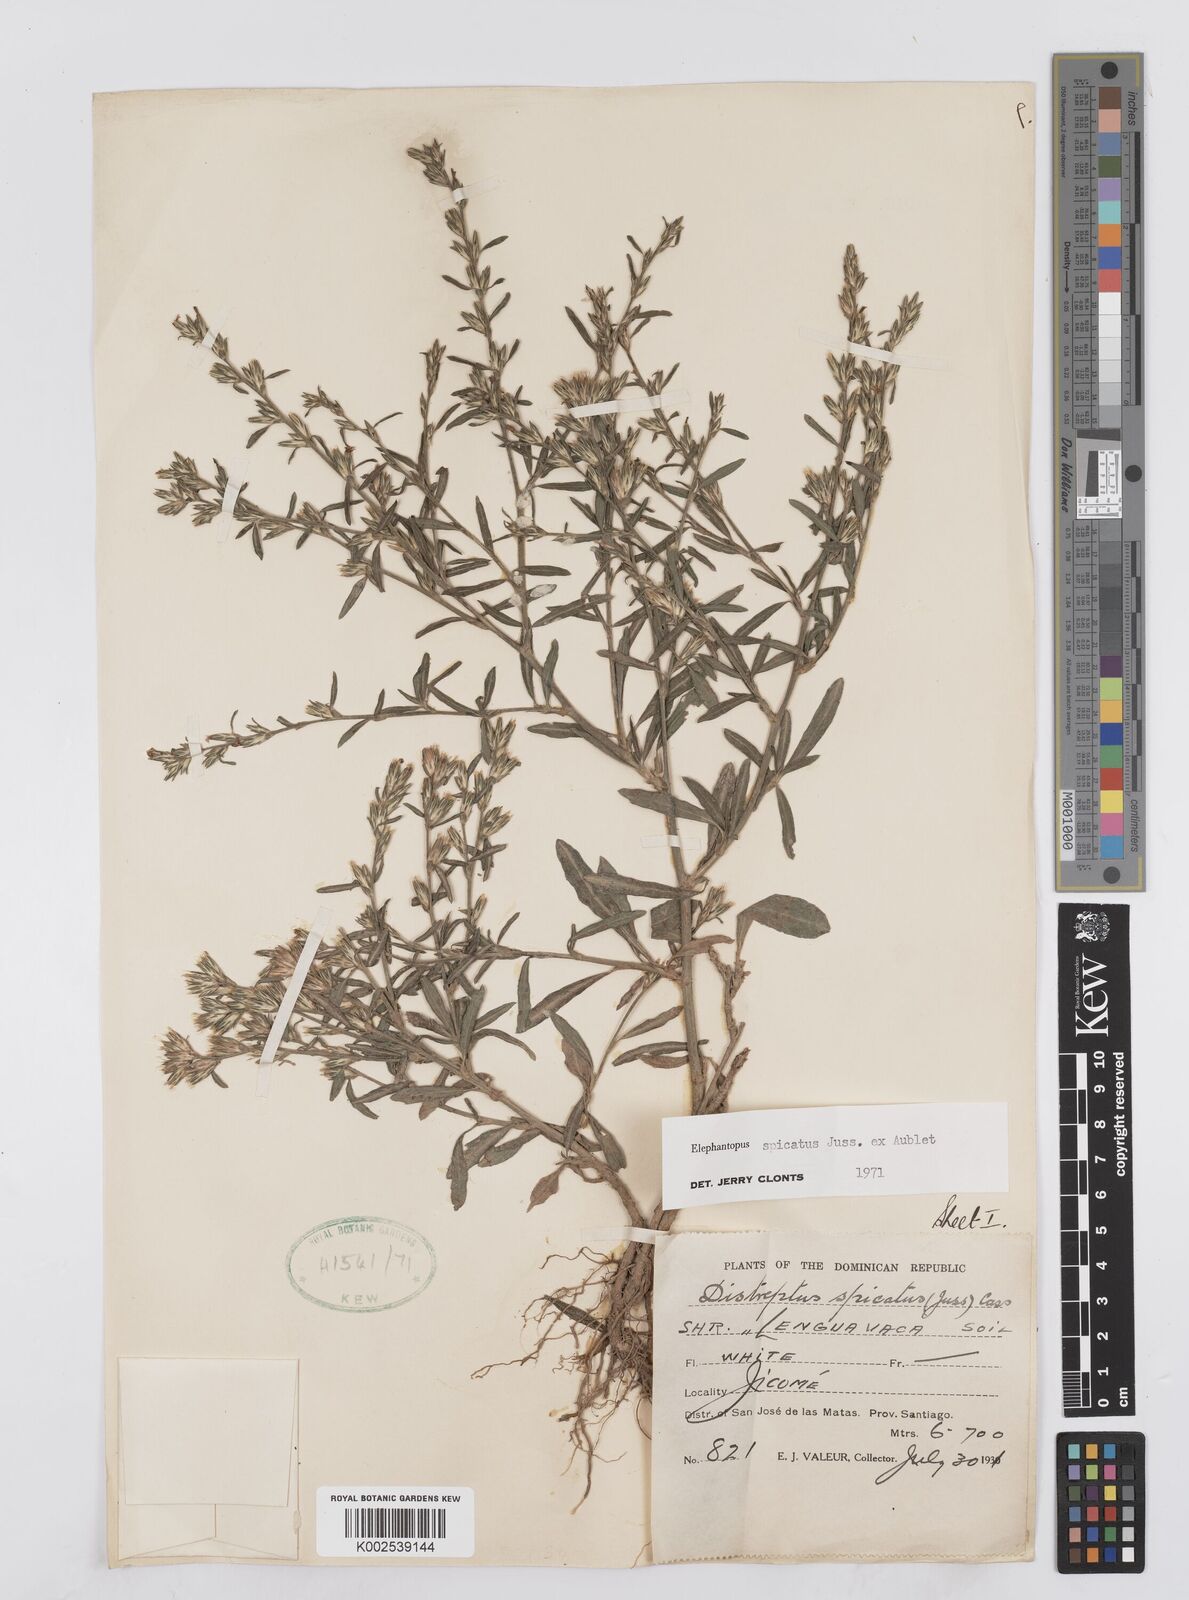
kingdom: Plantae
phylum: Tracheophyta
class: Magnoliopsida
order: Asterales
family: Asteraceae
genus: Pseudelephantopus
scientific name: Pseudelephantopus spicatus
